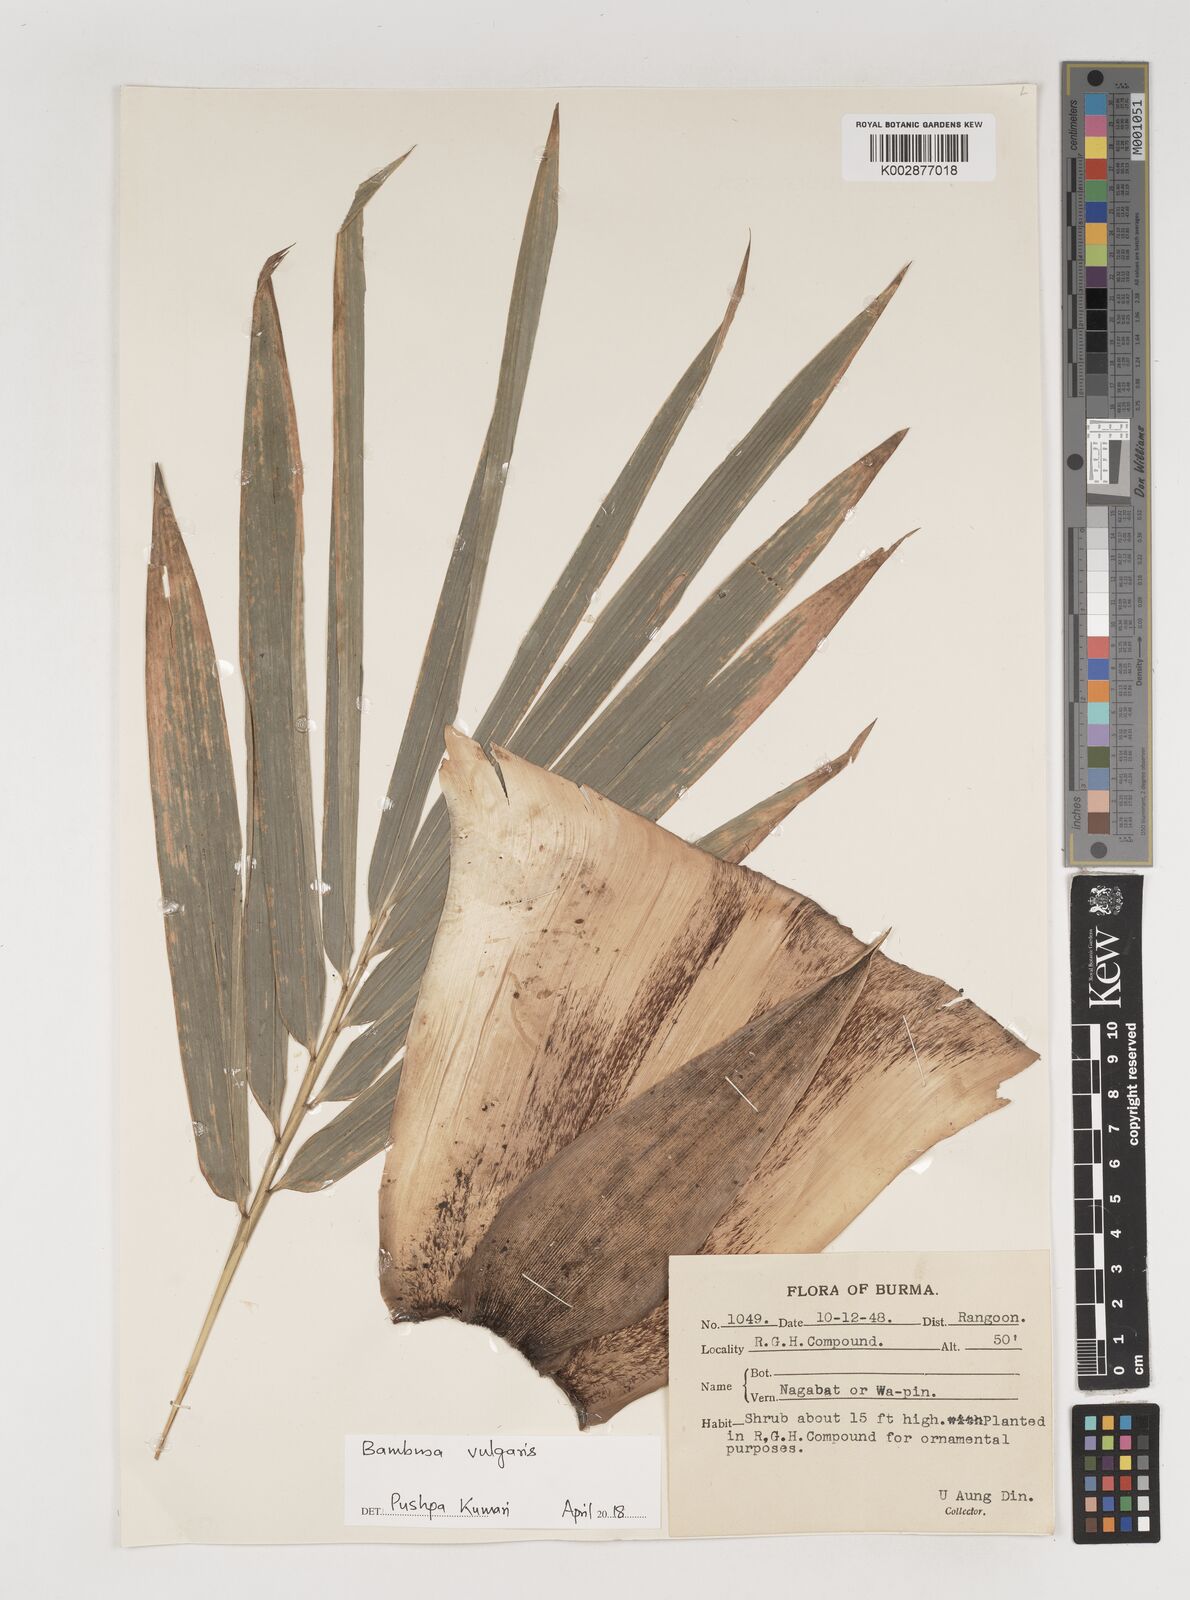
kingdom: Plantae
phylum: Tracheophyta
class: Liliopsida
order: Poales
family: Poaceae
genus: Bambusa
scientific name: Bambusa vulgaris
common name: Common bamboo
